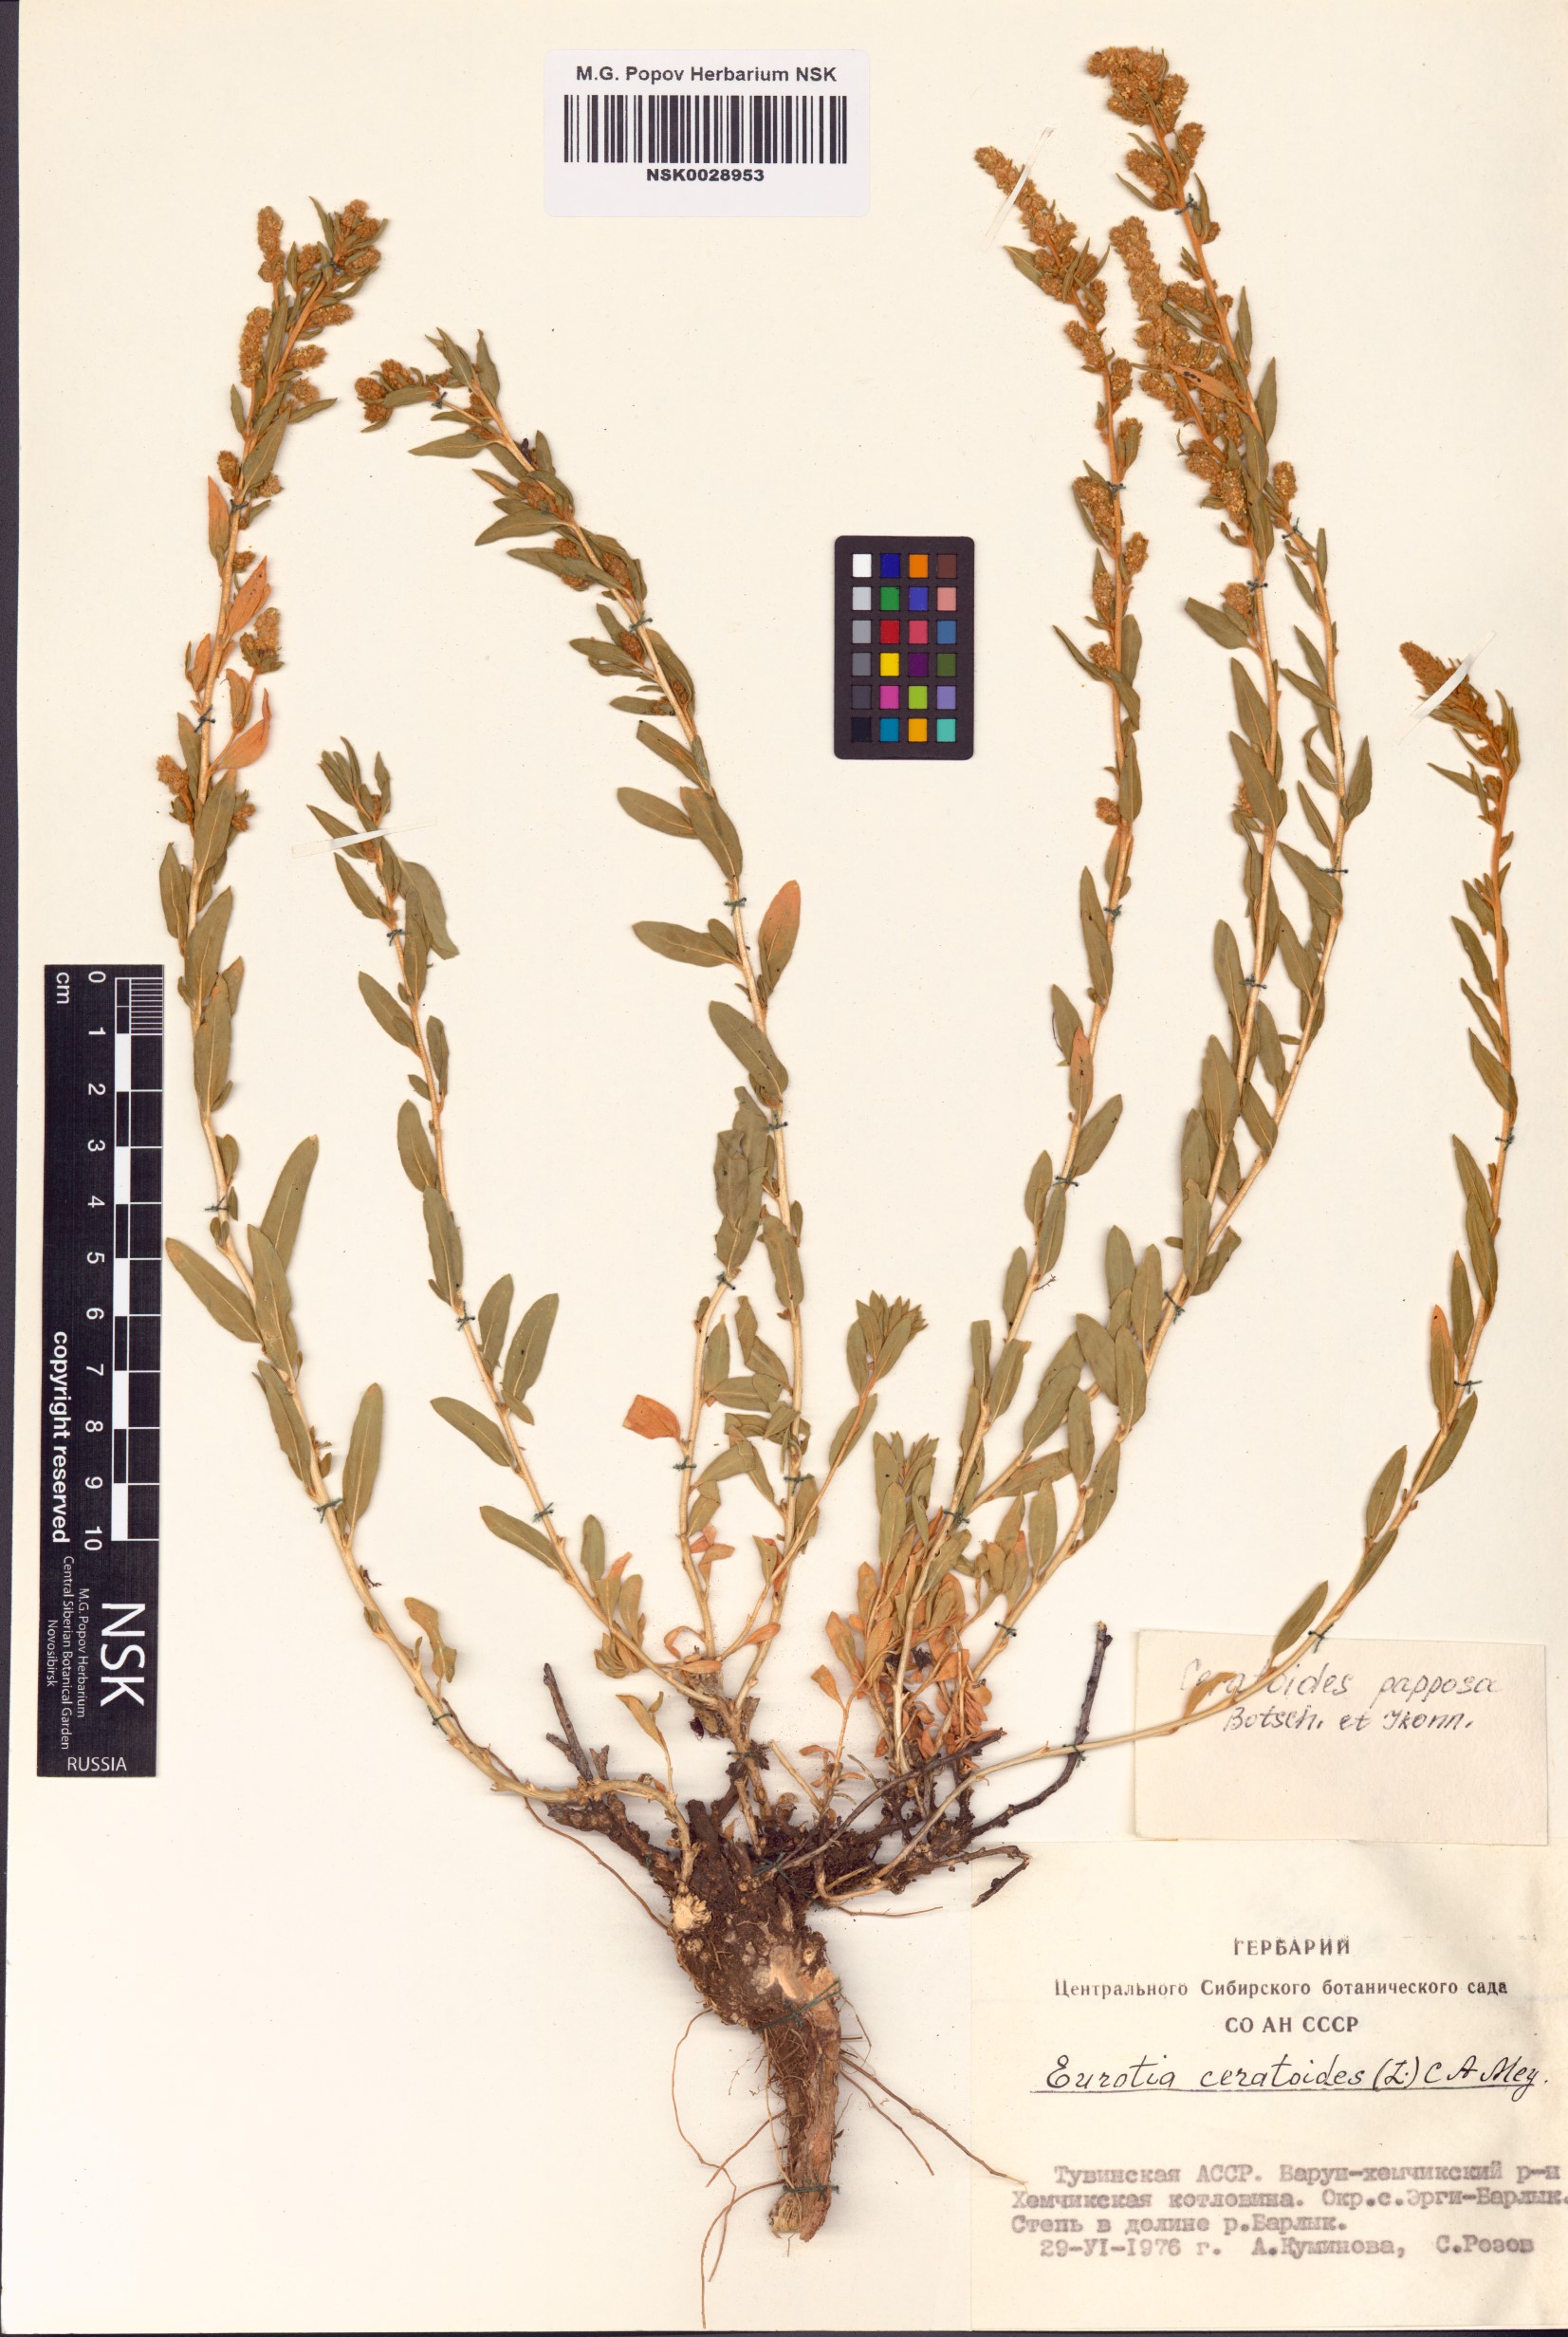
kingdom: Plantae
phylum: Tracheophyta
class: Magnoliopsida
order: Caryophyllales
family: Amaranthaceae
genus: Krascheninnikovia
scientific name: Krascheninnikovia ceratoides
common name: Pamirian winterfat
